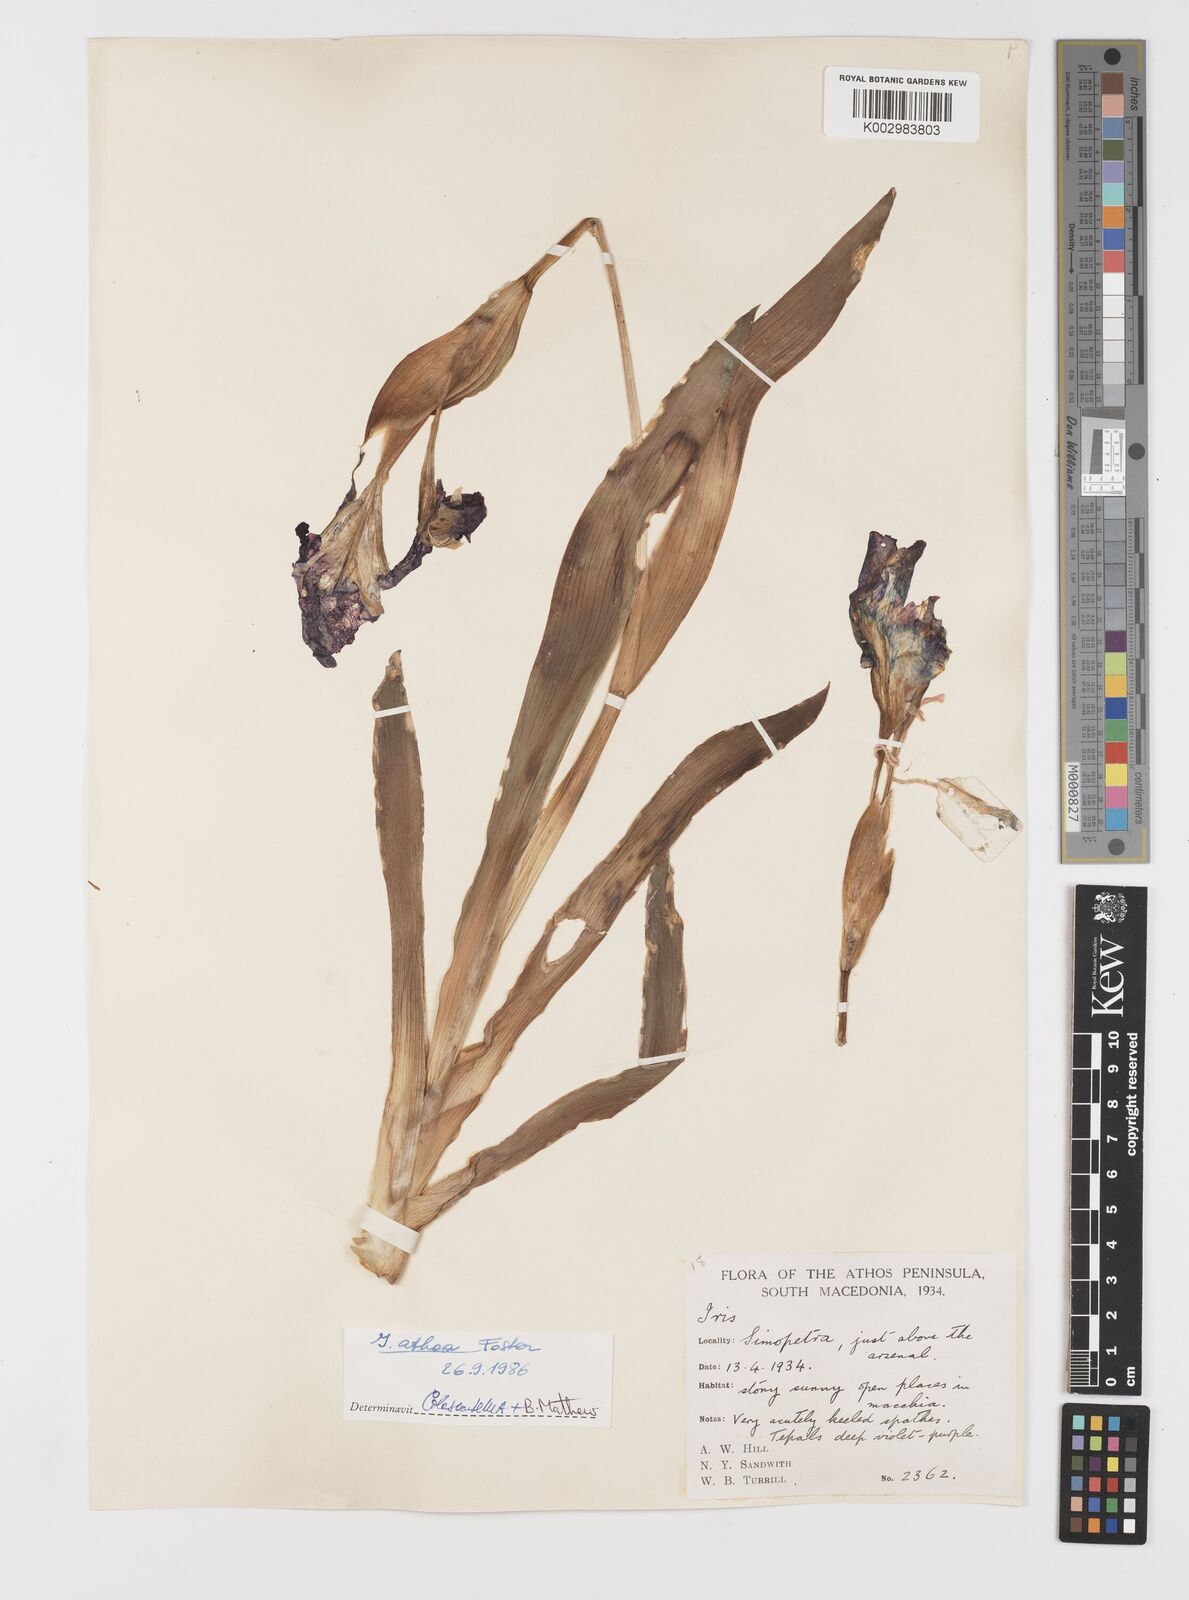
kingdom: Plantae
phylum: Tracheophyta
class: Liliopsida
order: Asparagales
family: Iridaceae
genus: Iris
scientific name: Iris reichenbachii
